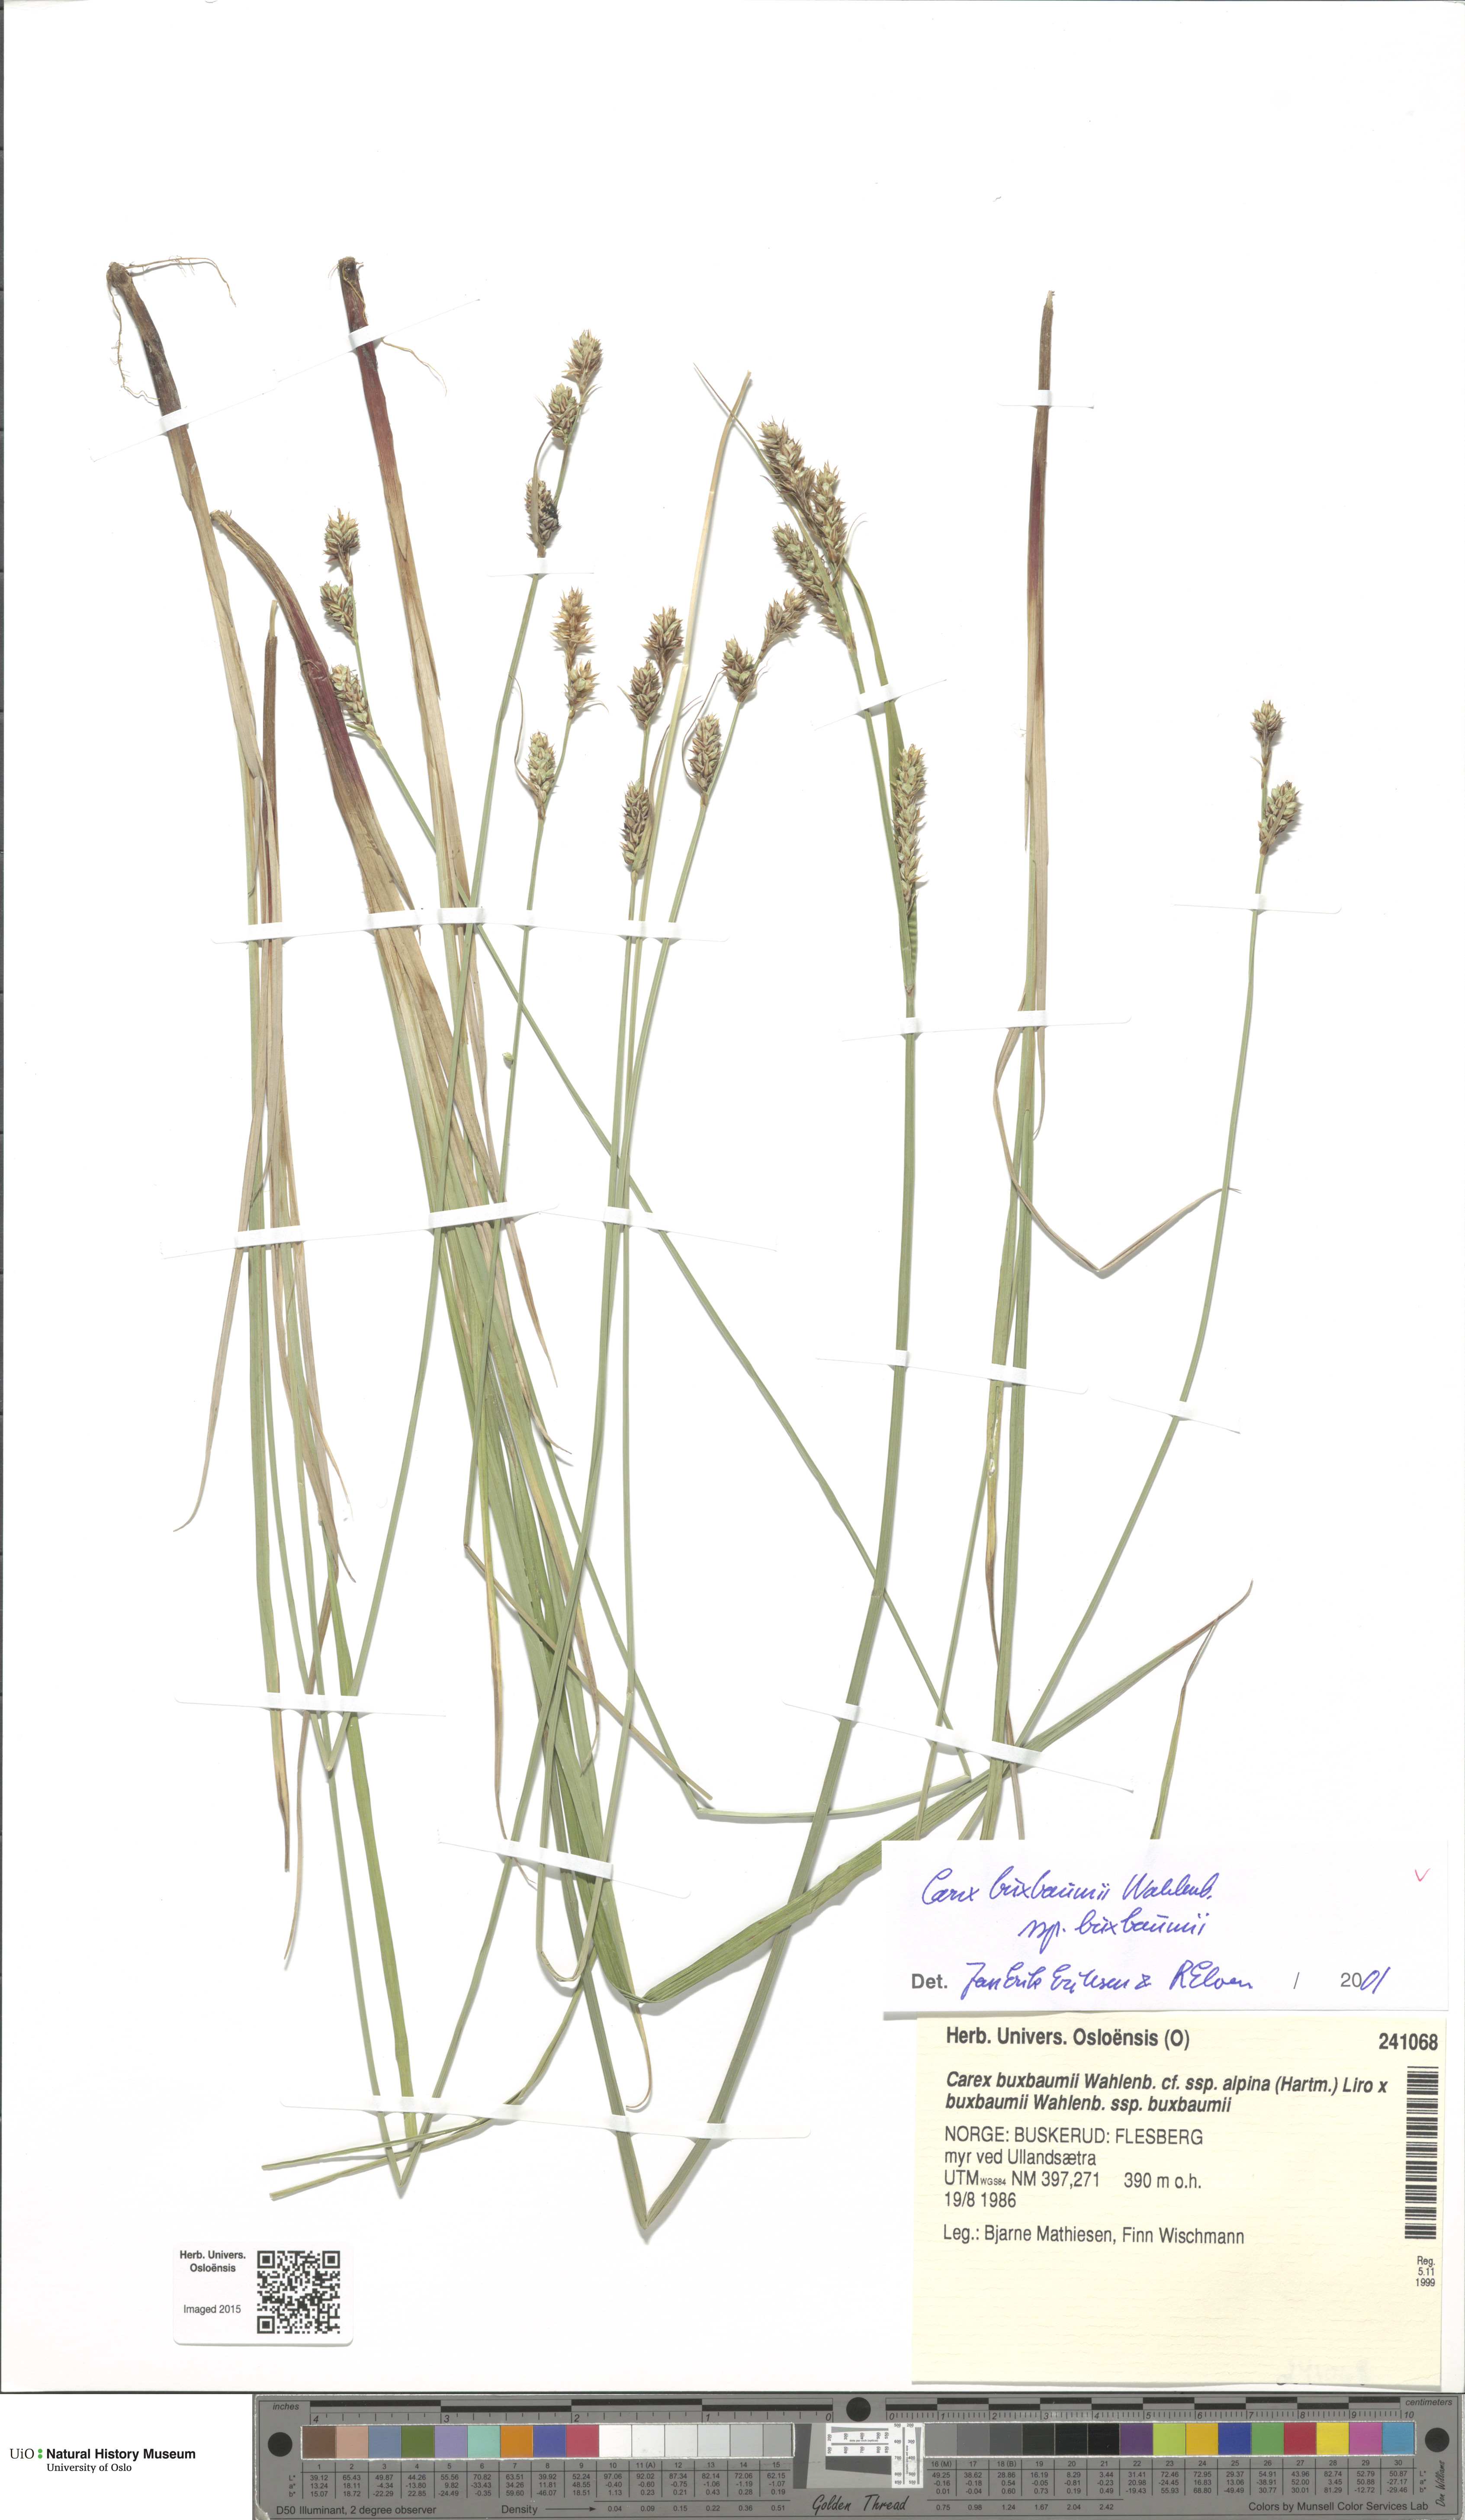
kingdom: Plantae
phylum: Tracheophyta
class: Liliopsida
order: Poales
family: Cyperaceae
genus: Carex
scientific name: Carex buxbaumii
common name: Club sedge
